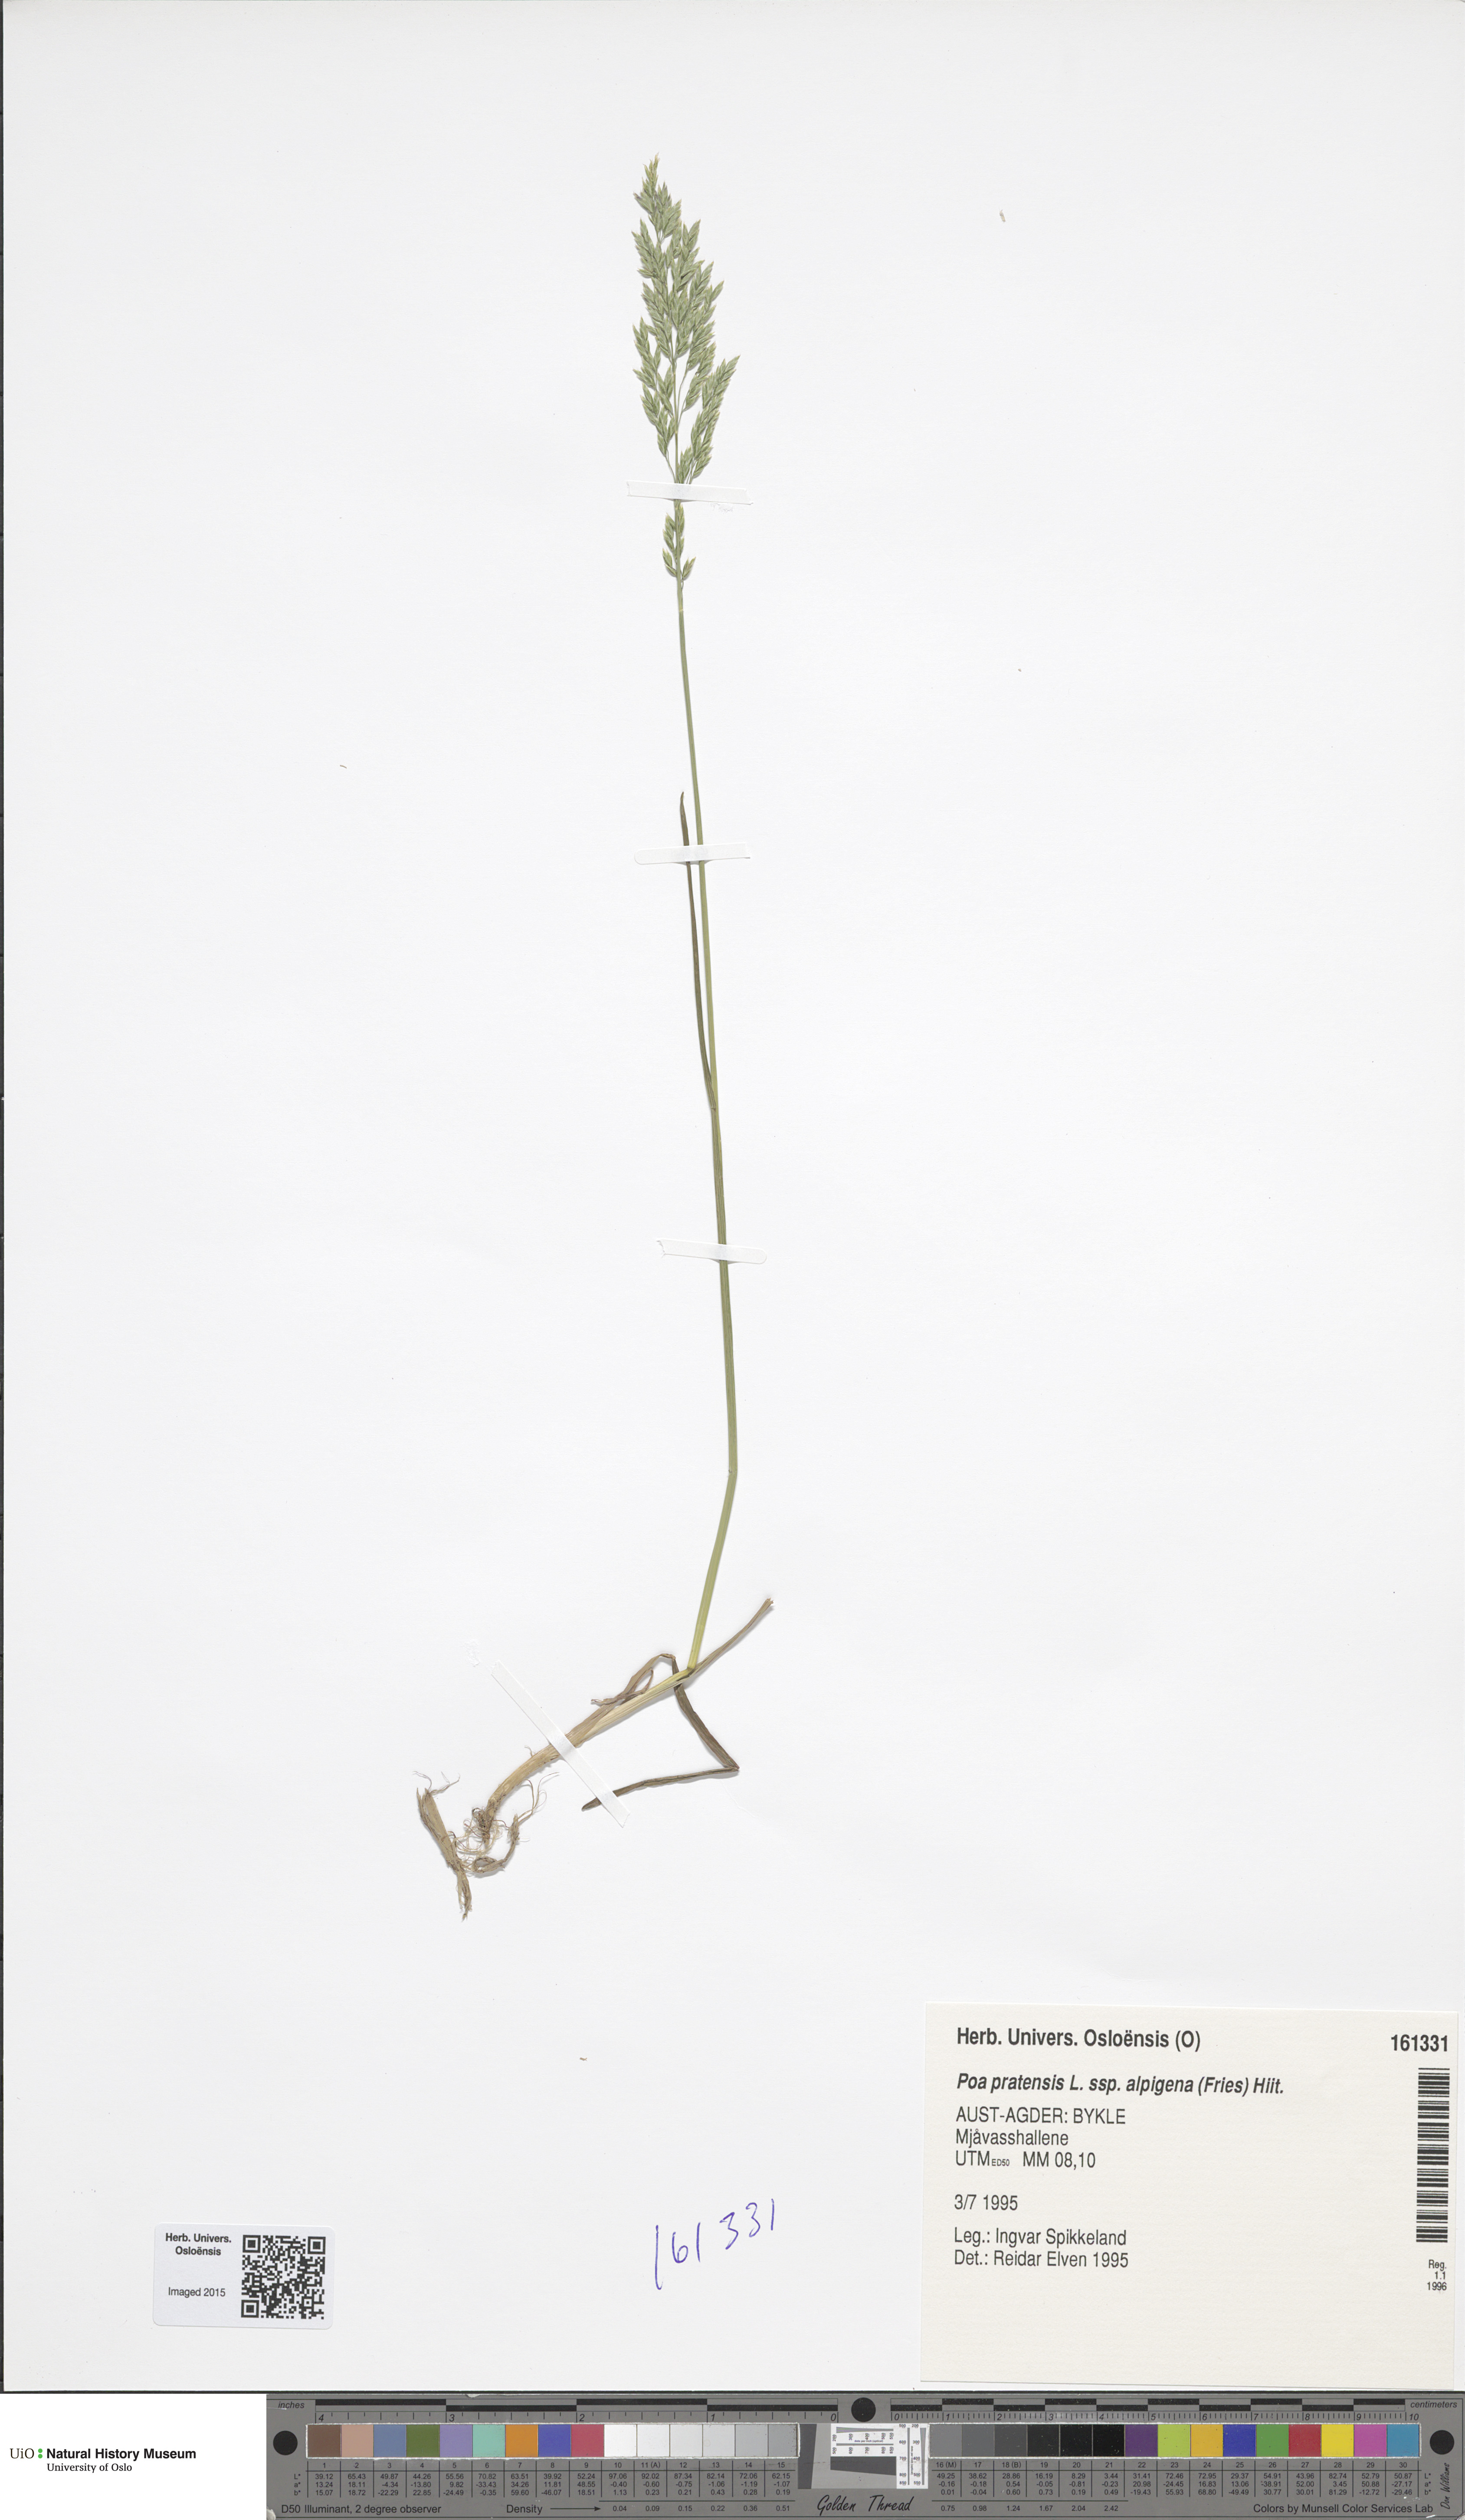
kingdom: Plantae
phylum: Tracheophyta
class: Liliopsida
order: Poales
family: Poaceae
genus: Poa
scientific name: Poa alpigena
